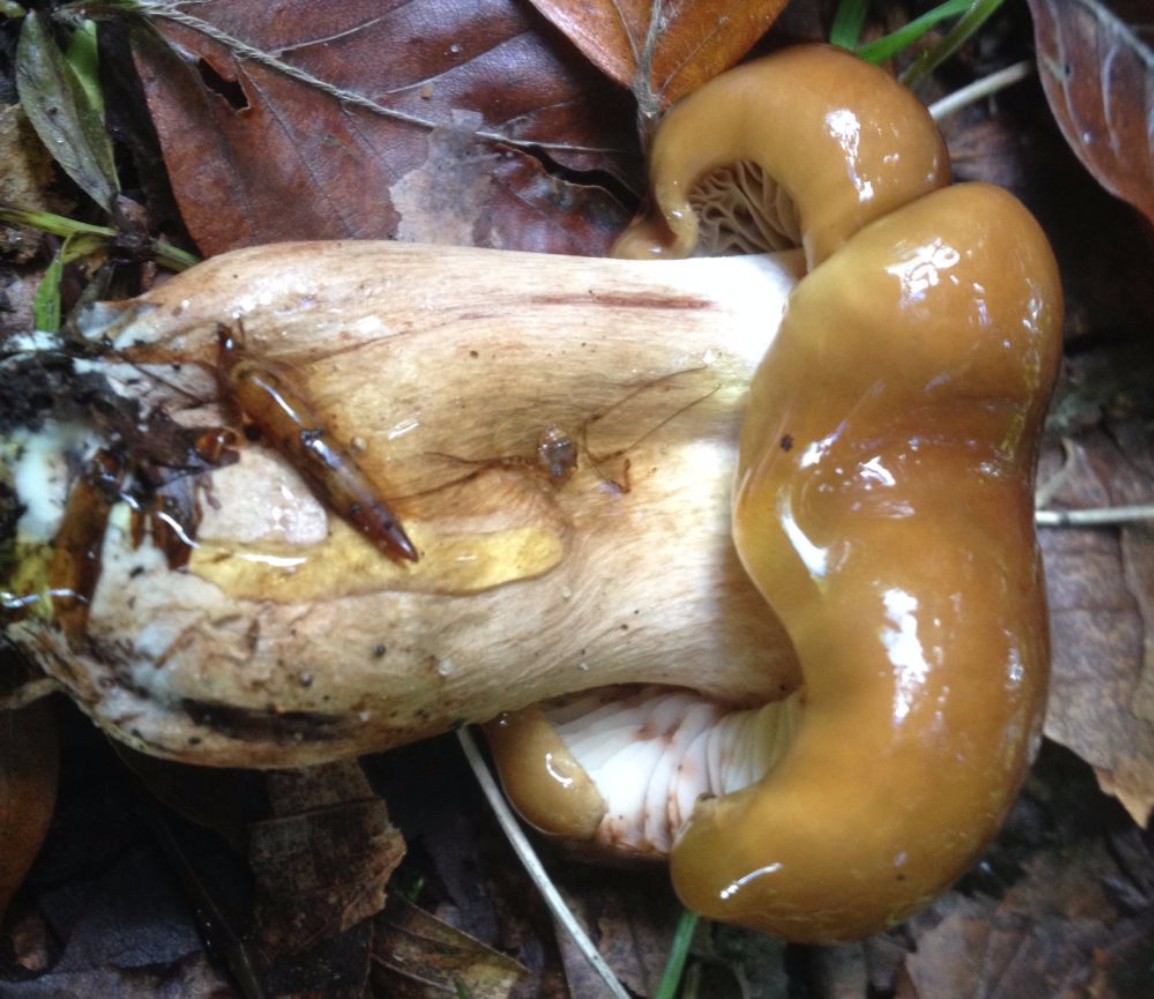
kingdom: Fungi
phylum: Basidiomycota
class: Agaricomycetes
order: Agaricales
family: Tricholomataceae
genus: Tricholoma
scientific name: Tricholoma ustale
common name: sveden ridderhat
